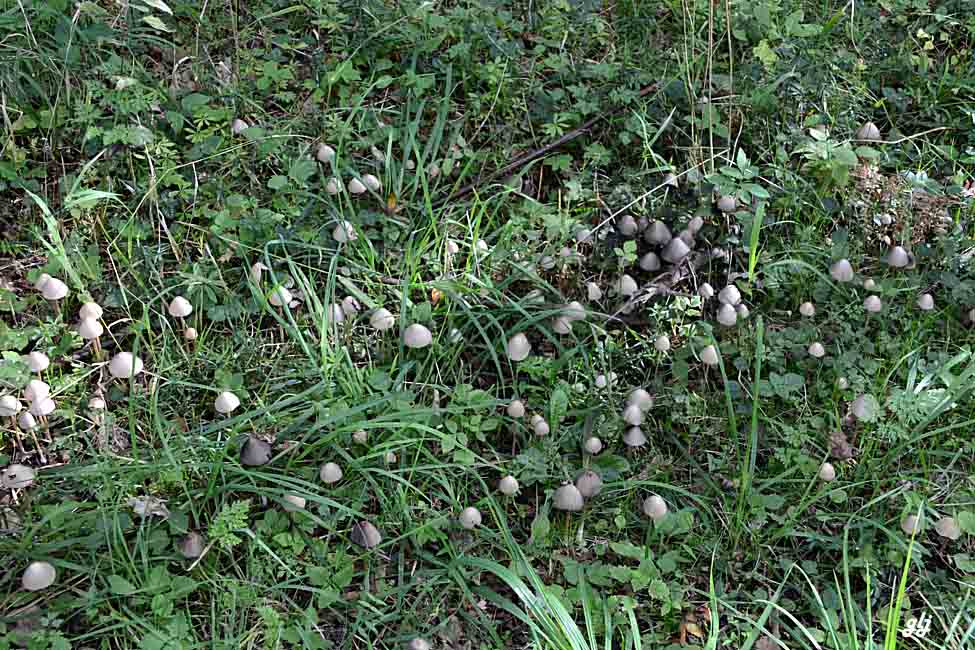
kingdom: Fungi
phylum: Basidiomycota
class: Agaricomycetes
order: Agaricales
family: Psathyrellaceae
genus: Parasola
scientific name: Parasola conopilea
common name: kegle-hjulhat
